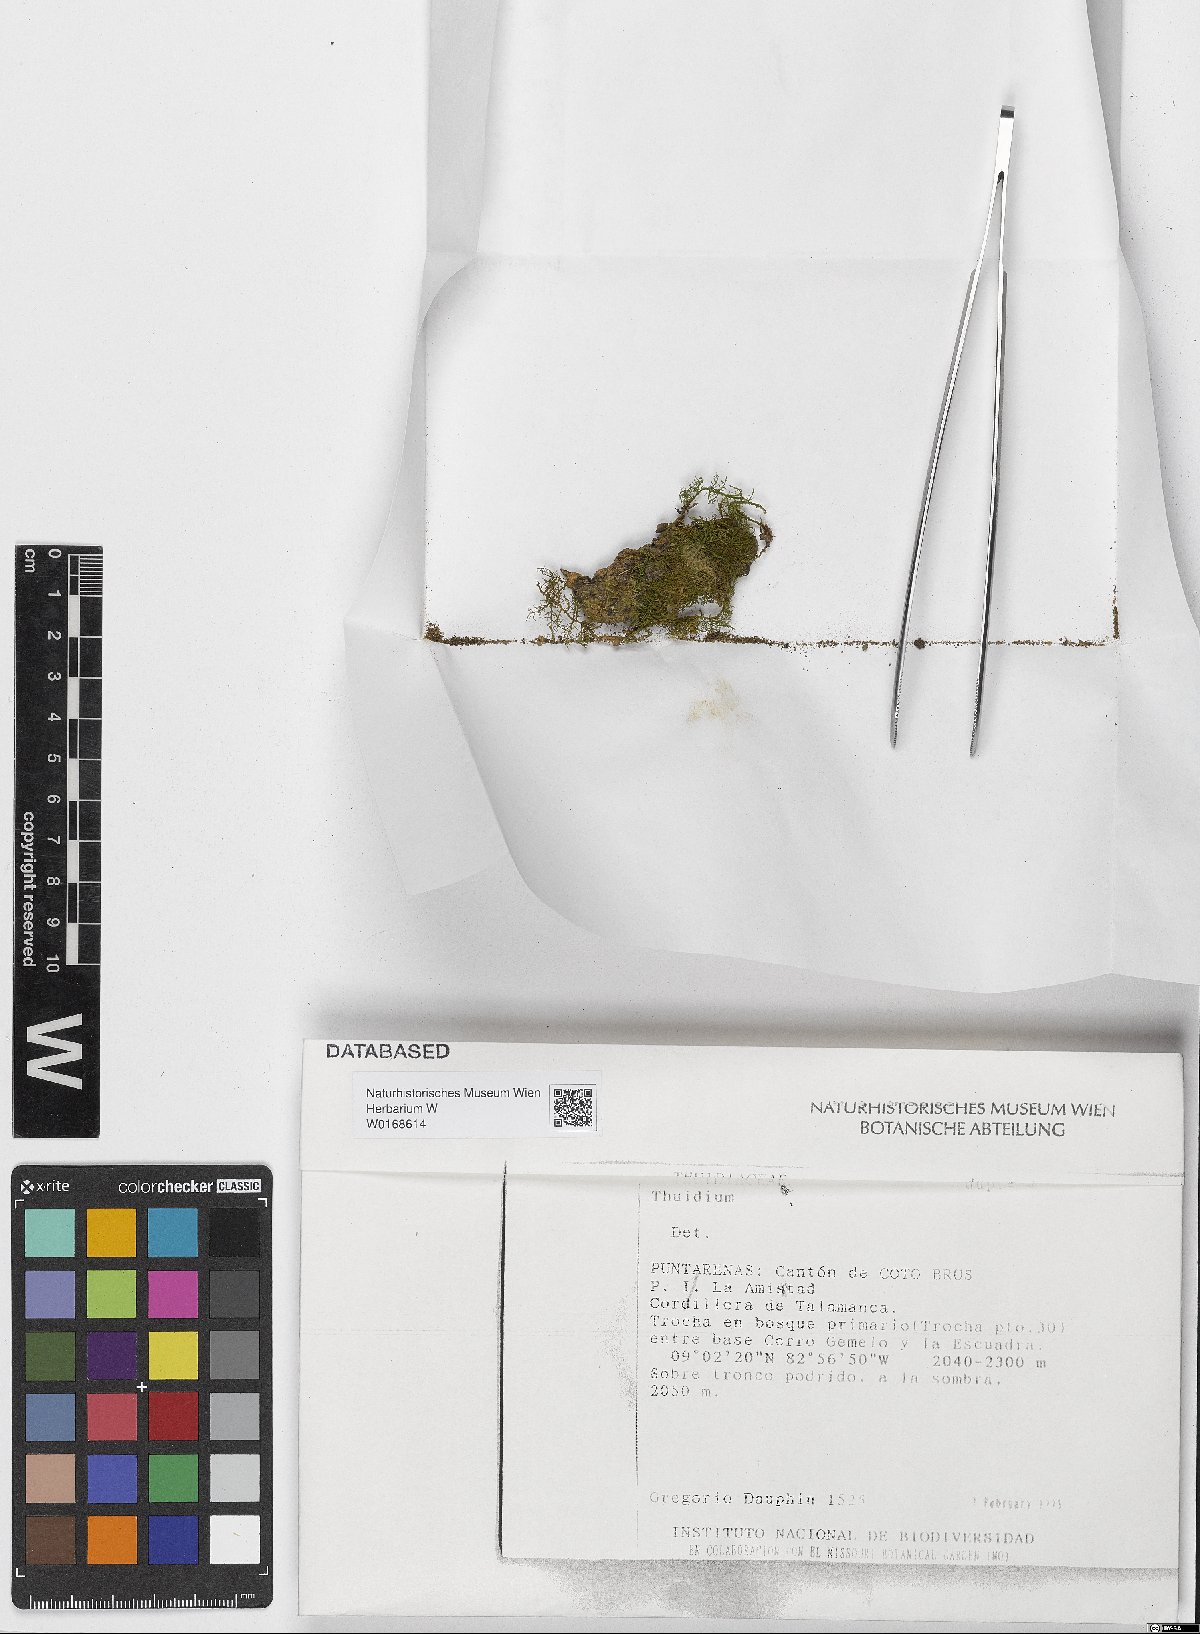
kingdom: Plantae
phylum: Bryophyta
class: Bryopsida
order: Hypnales
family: Thuidiaceae
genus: Thuidium
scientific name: Thuidium
